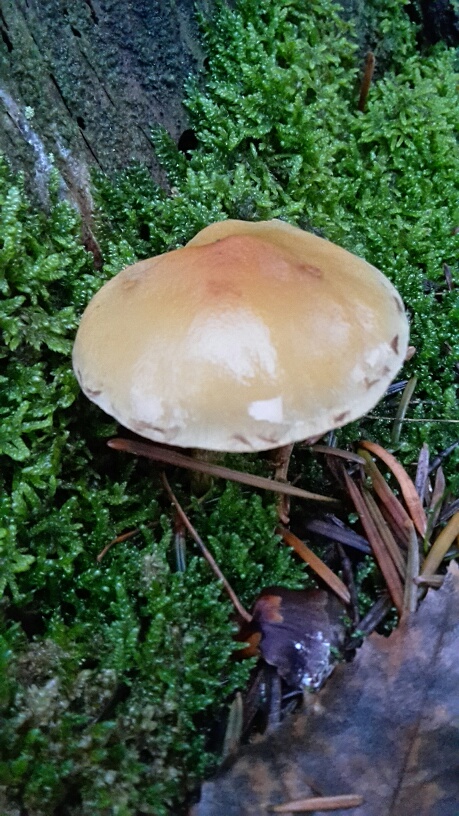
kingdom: Fungi
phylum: Basidiomycota
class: Agaricomycetes
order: Agaricales
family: Strophariaceae
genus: Hypholoma
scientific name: Hypholoma capnoides
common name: gran-svovlhat
